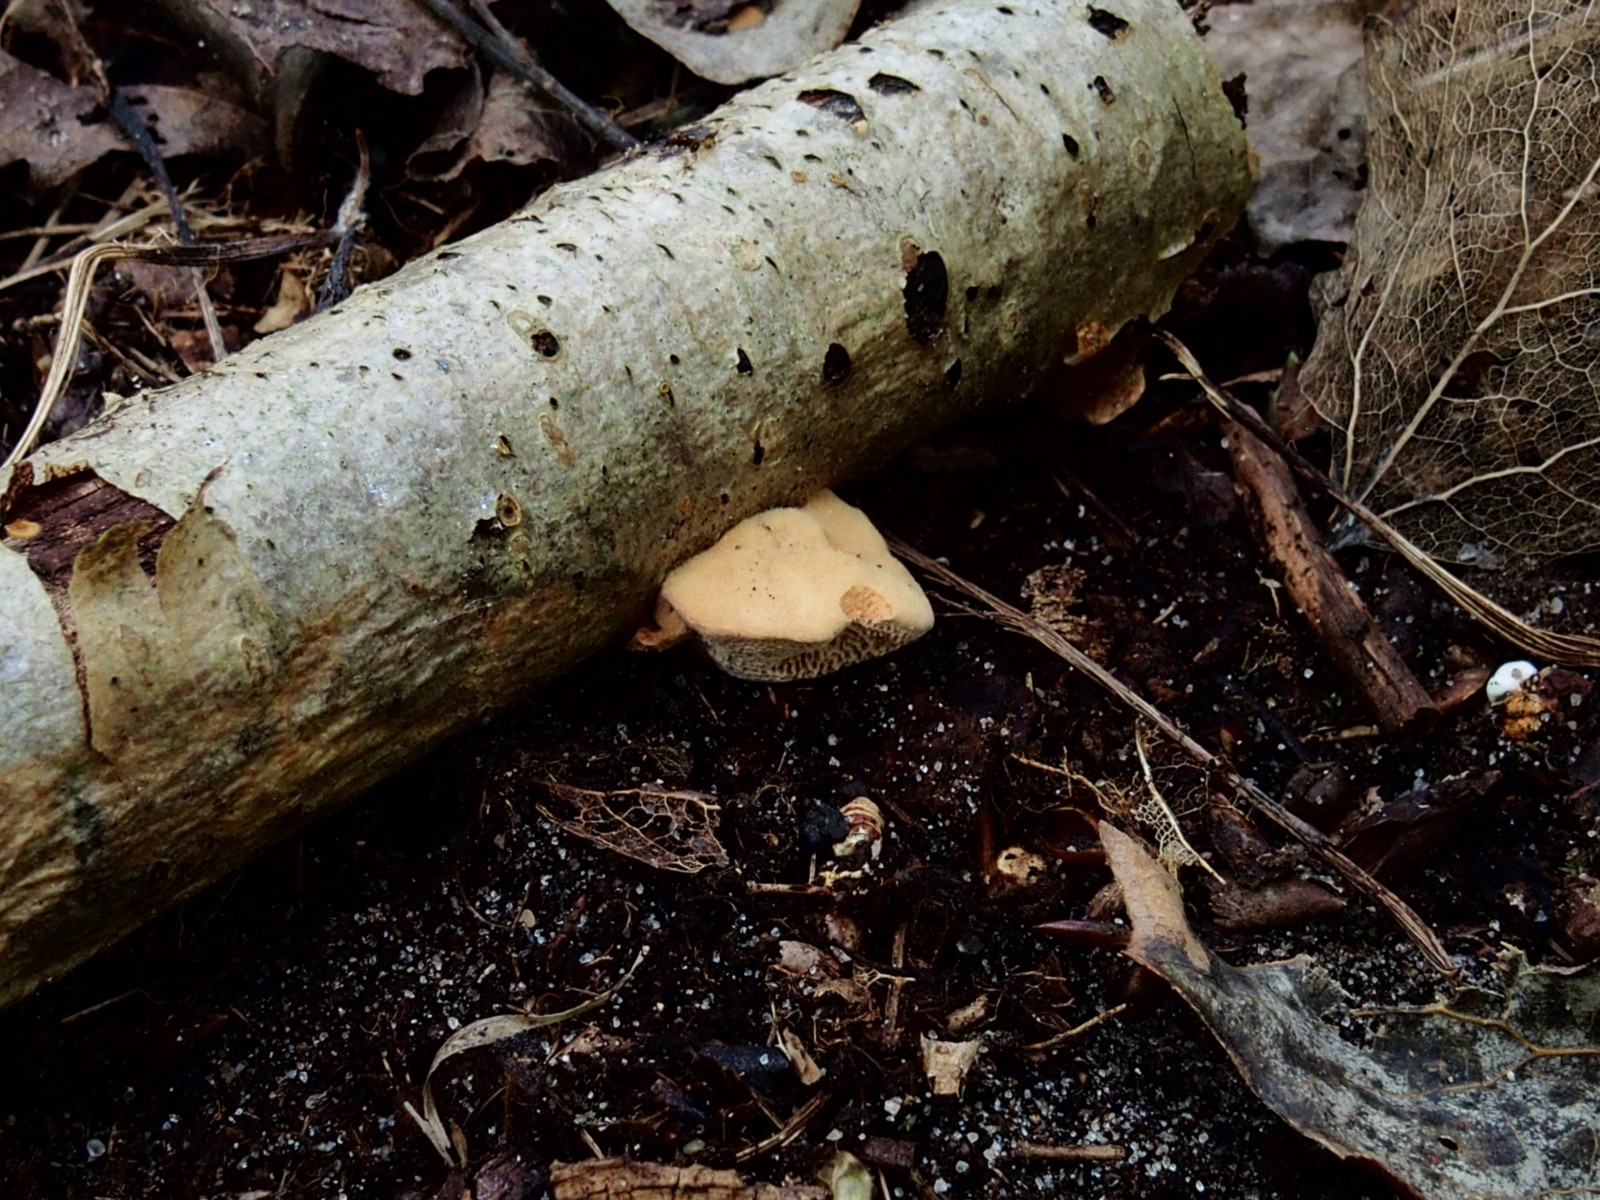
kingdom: Fungi
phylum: Basidiomycota
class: Agaricomycetes
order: Polyporales
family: Phanerochaetaceae
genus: Hapalopilus
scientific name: Hapalopilus rutilans
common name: rødlig okkerporesvamp
